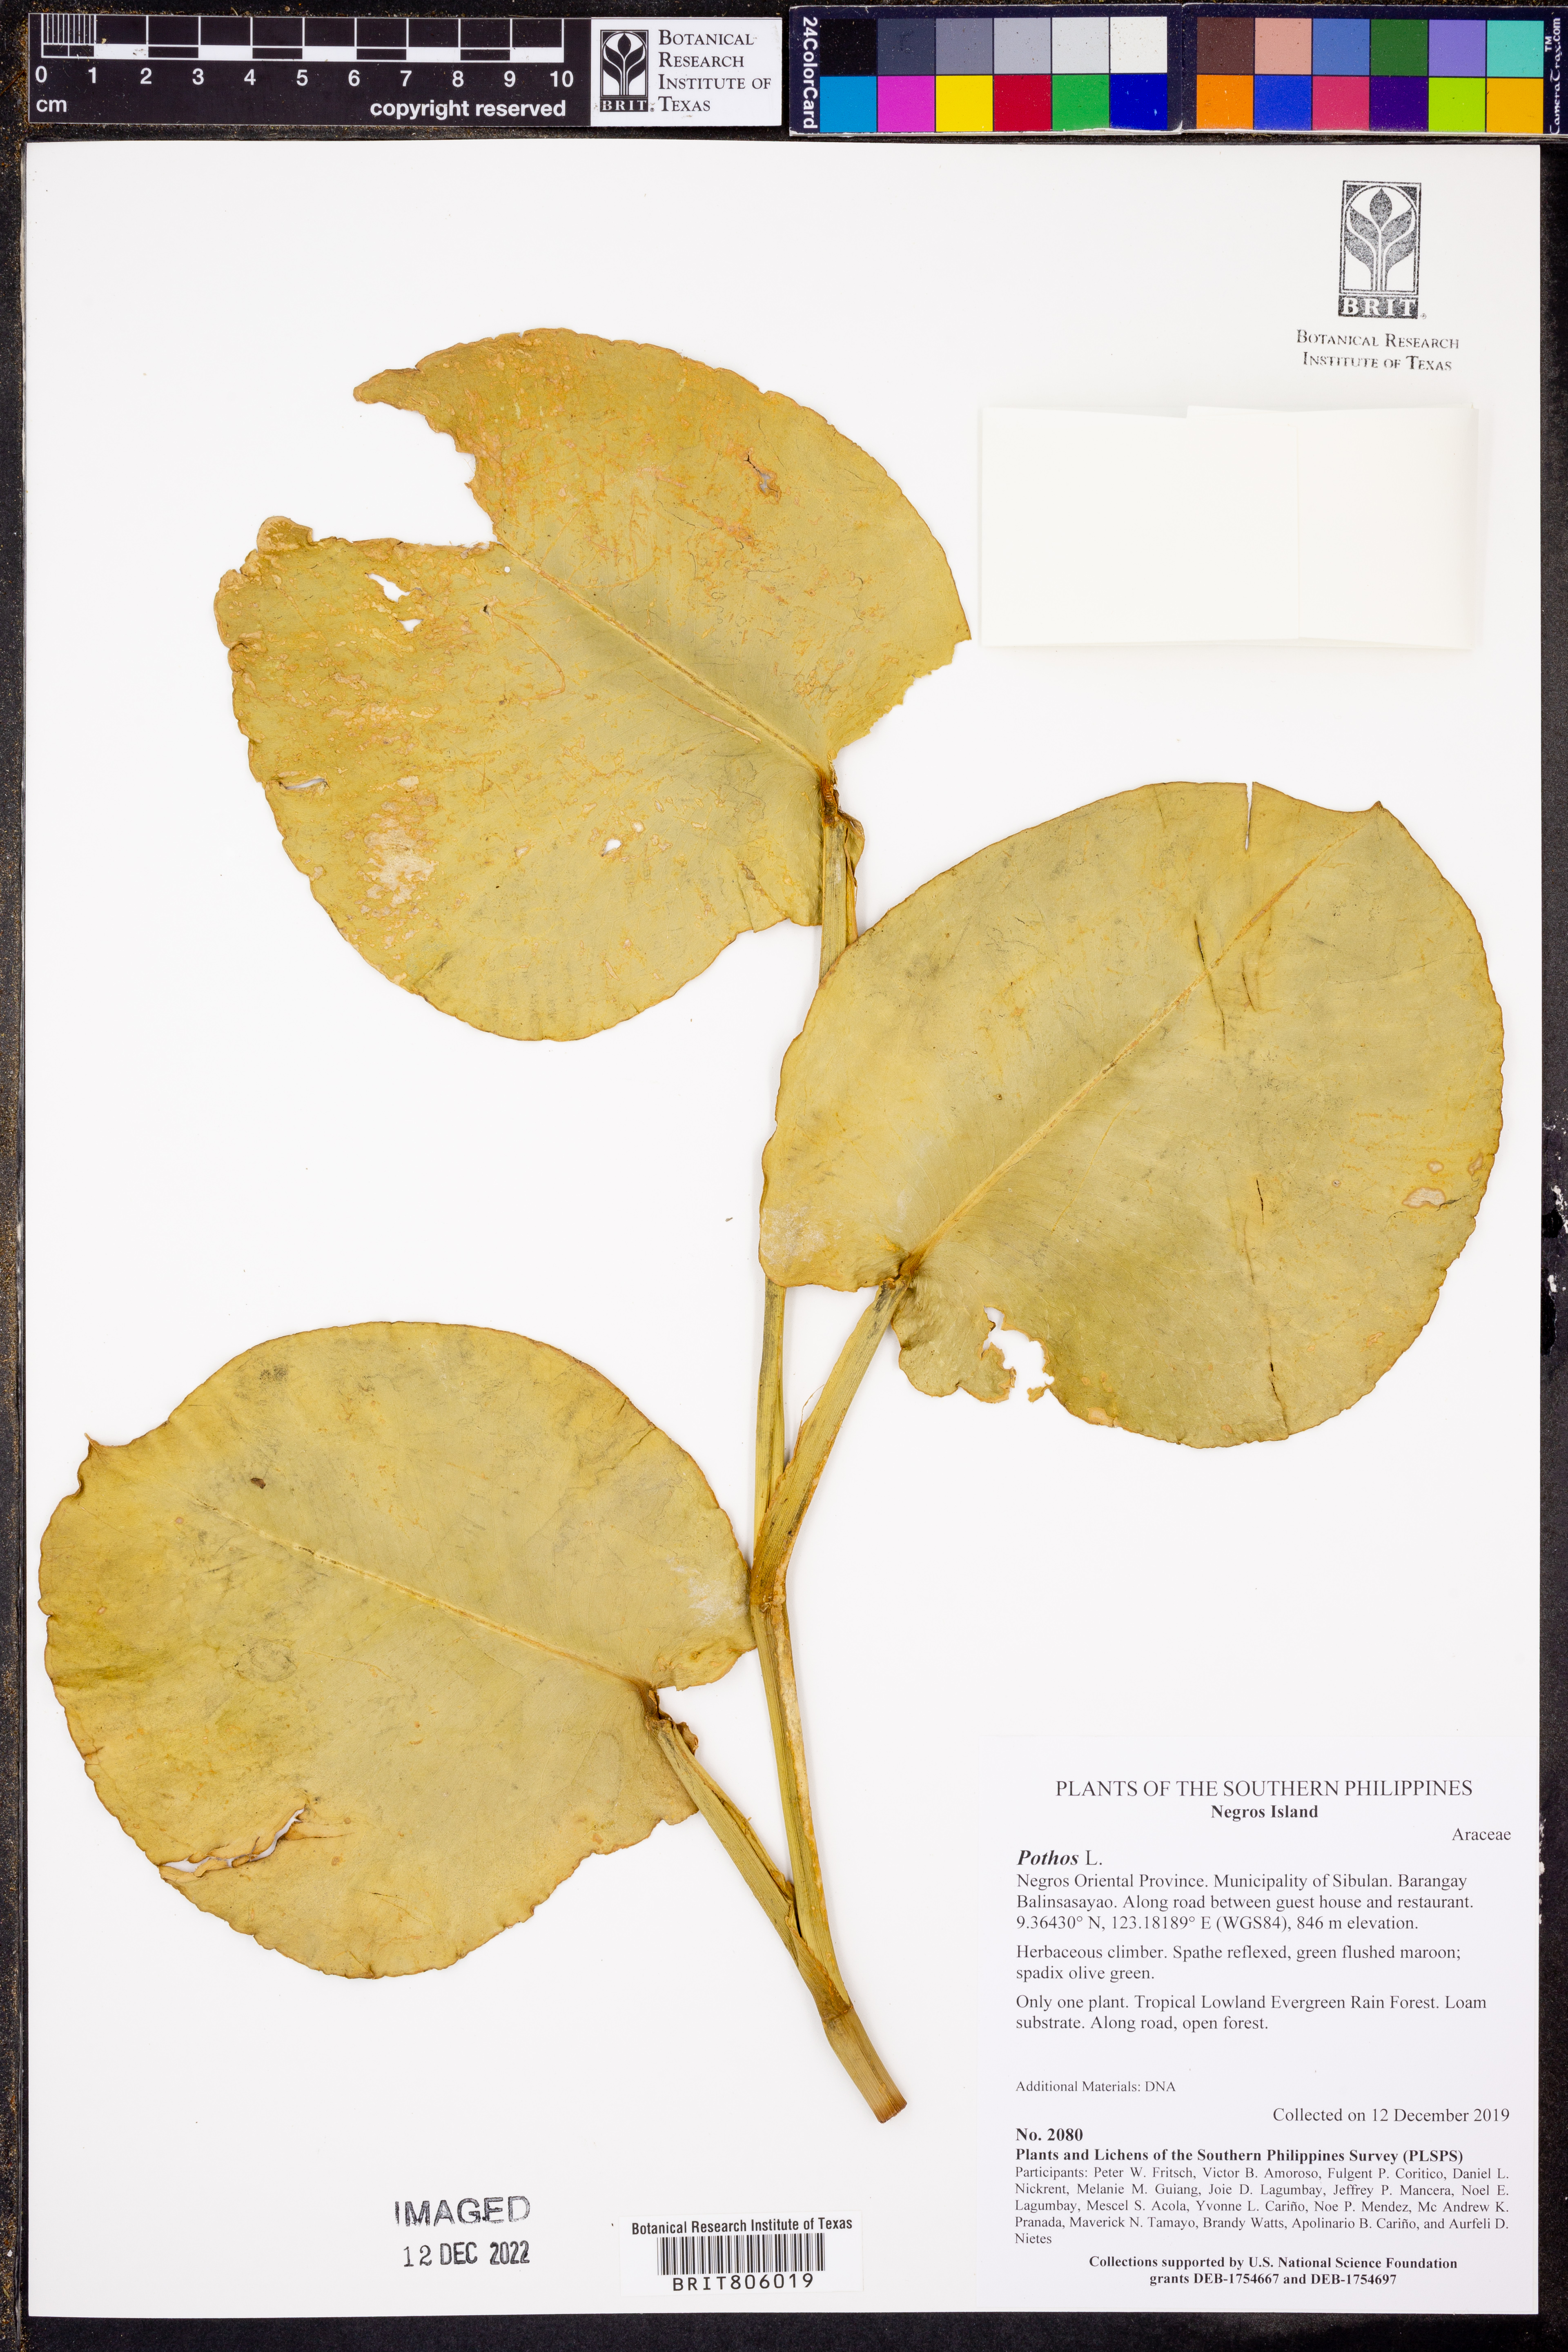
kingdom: Plantae
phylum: Tracheophyta
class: Liliopsida
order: Alismatales
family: Araceae
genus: Pothos
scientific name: Pothos
